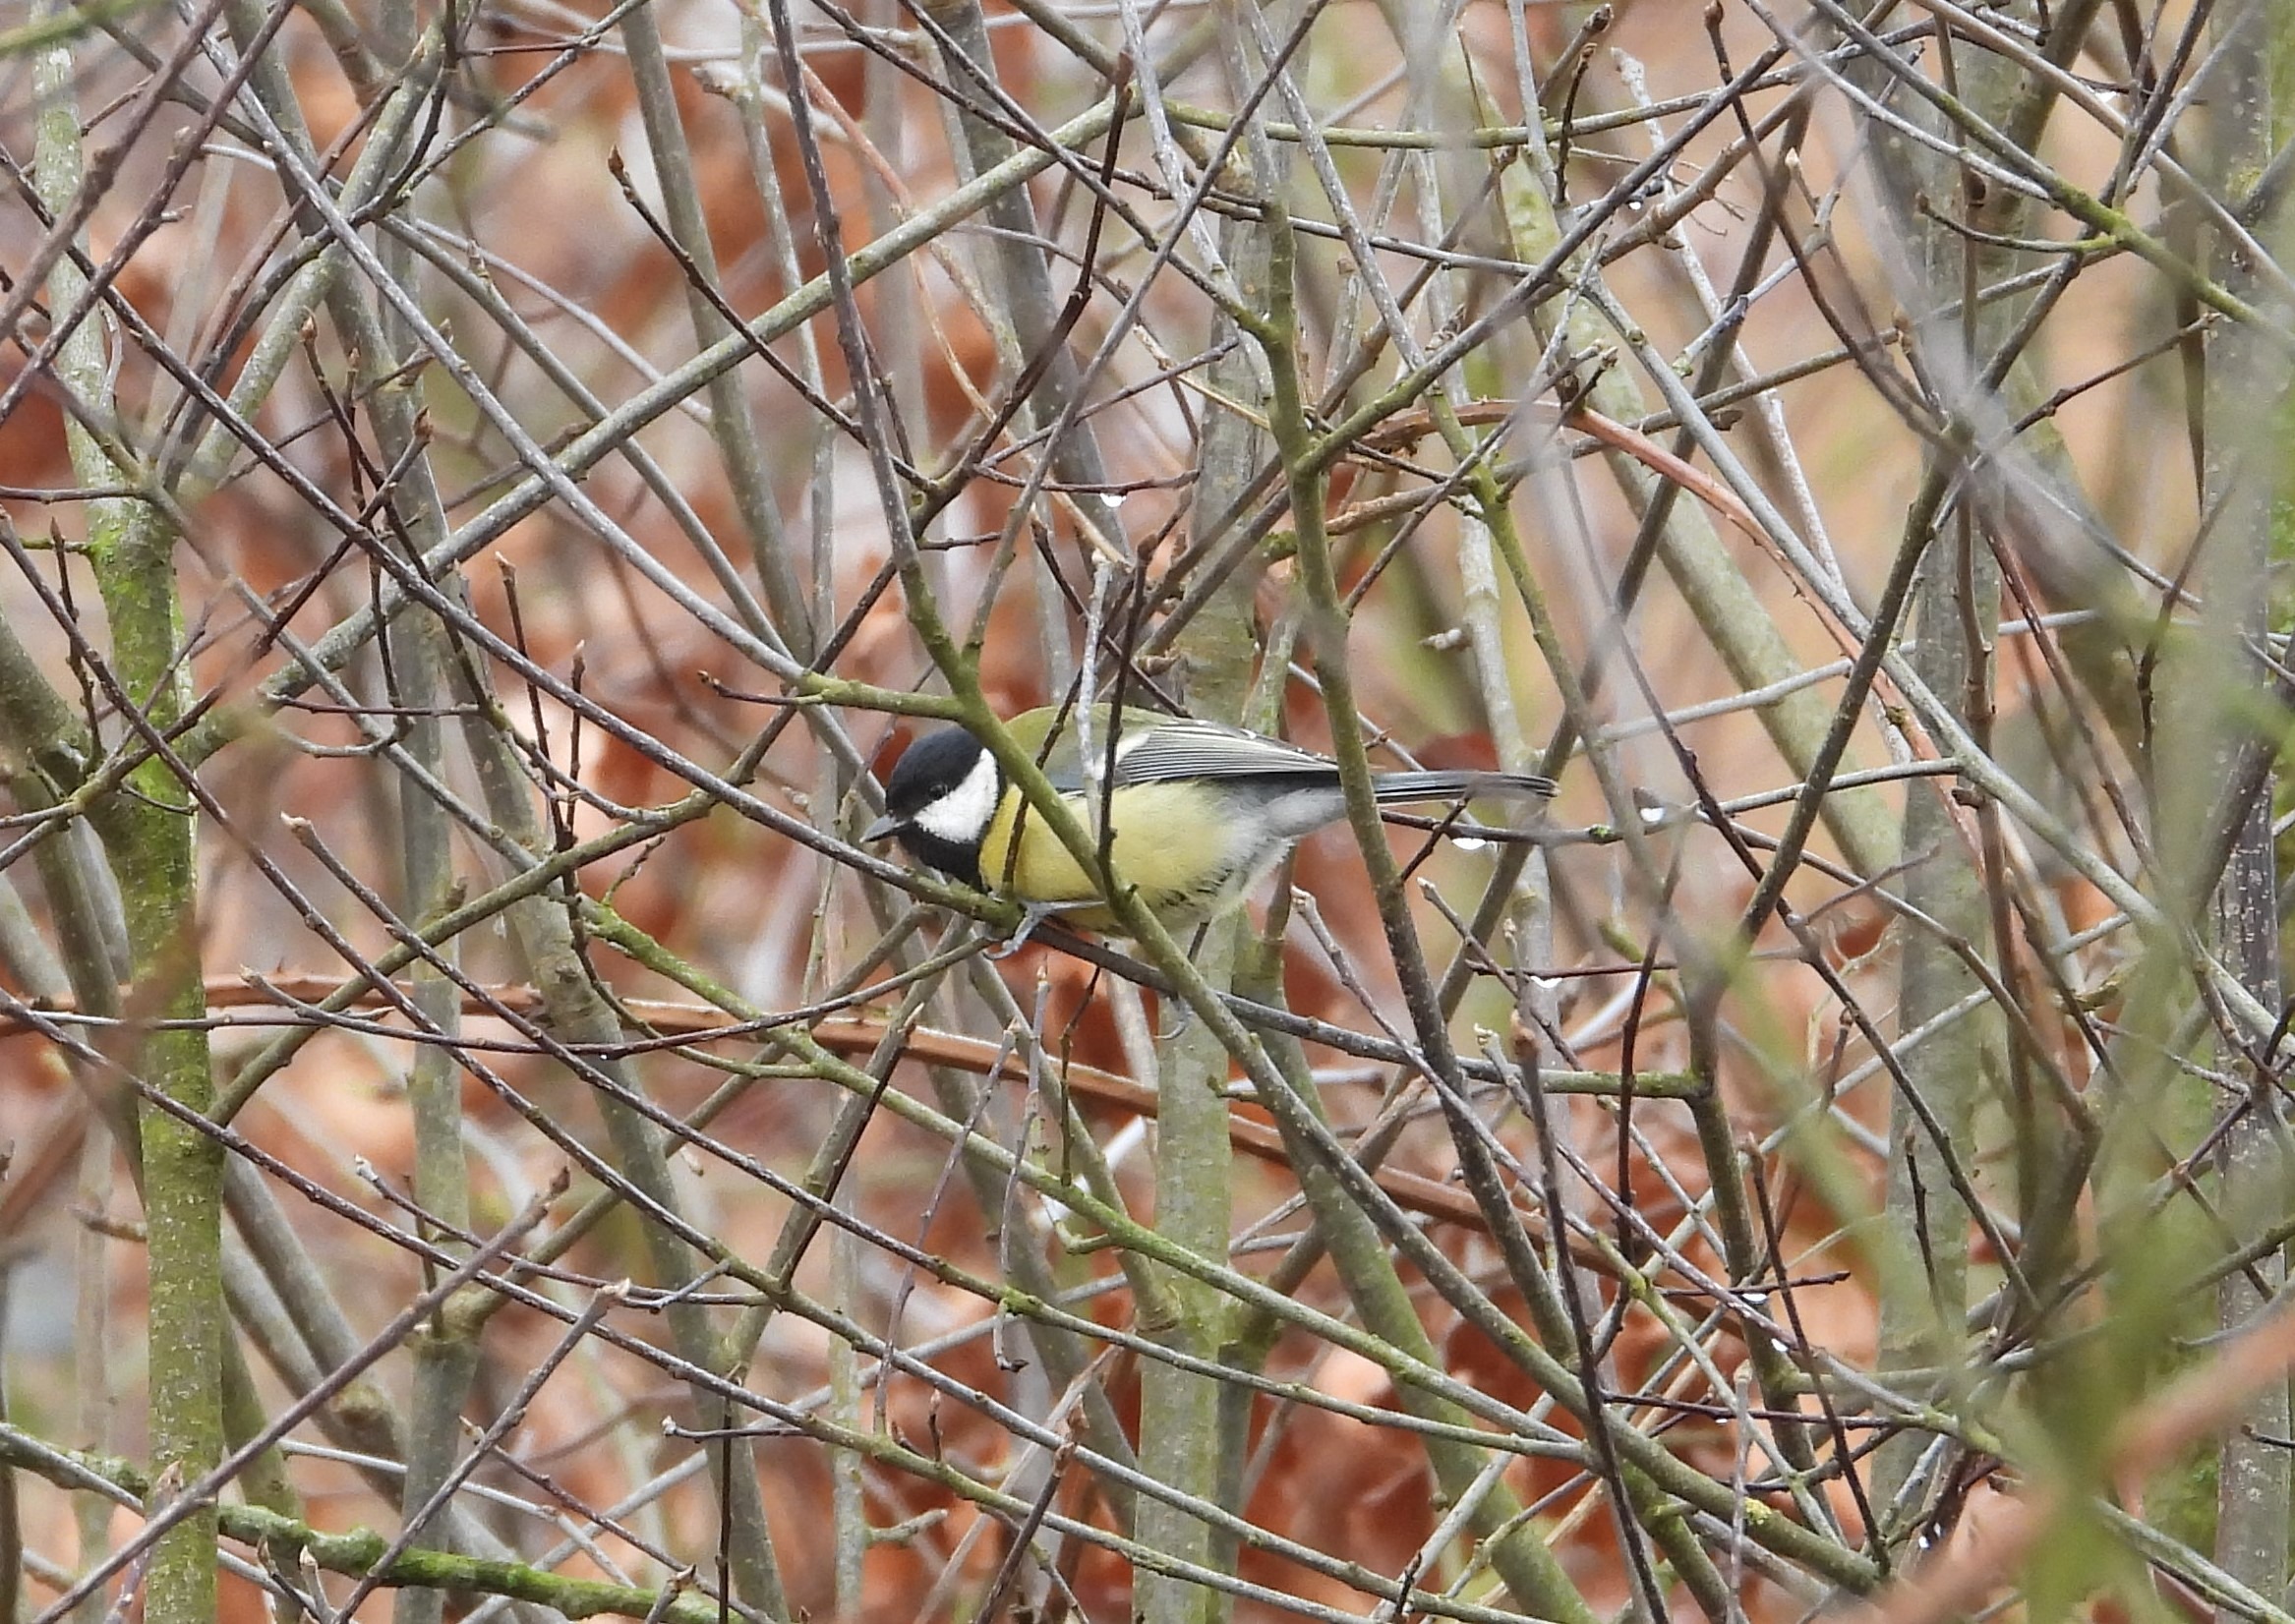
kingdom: Animalia
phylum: Chordata
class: Aves
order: Passeriformes
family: Paridae
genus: Parus
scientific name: Parus major
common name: Musvit
